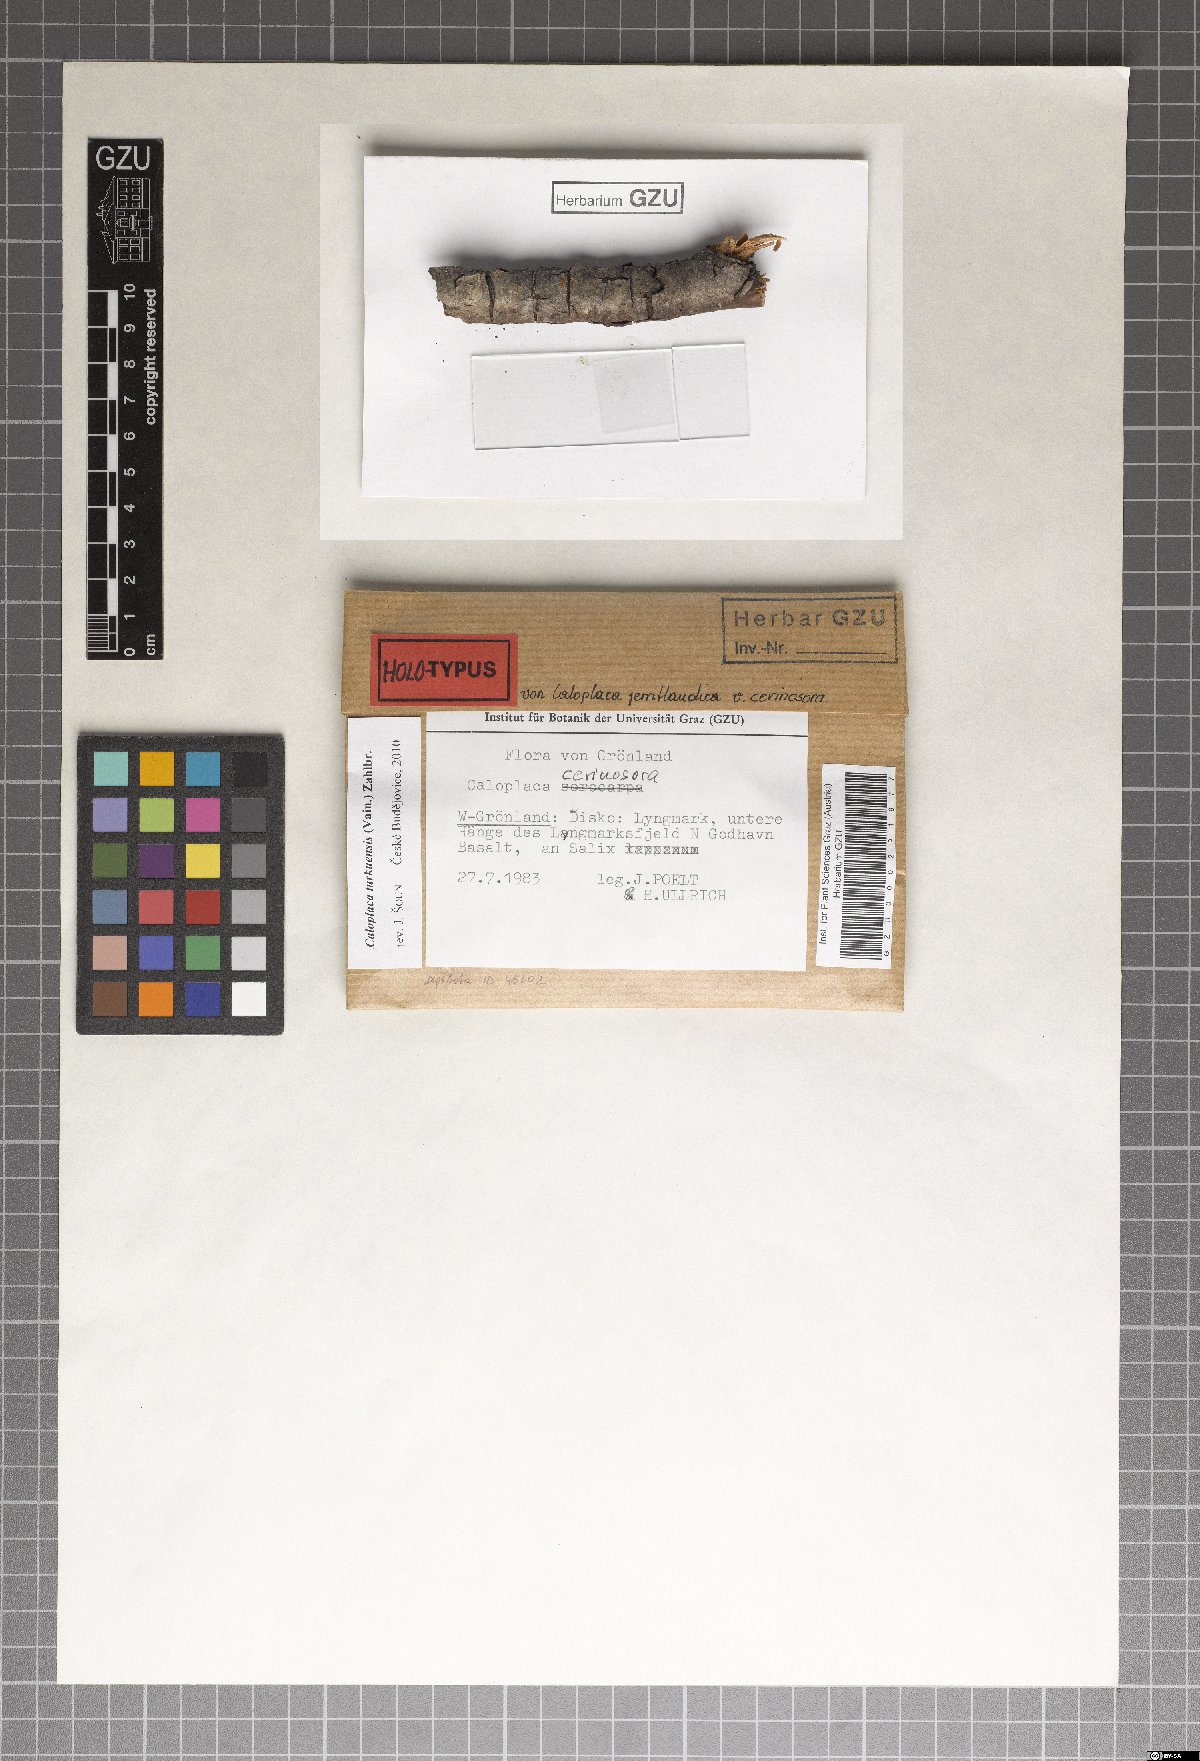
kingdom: Fungi
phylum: Ascomycota
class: Lecanoromycetes
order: Teloschistales
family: Teloschistaceae
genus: Caloplaca
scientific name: Caloplaca turkuensis
